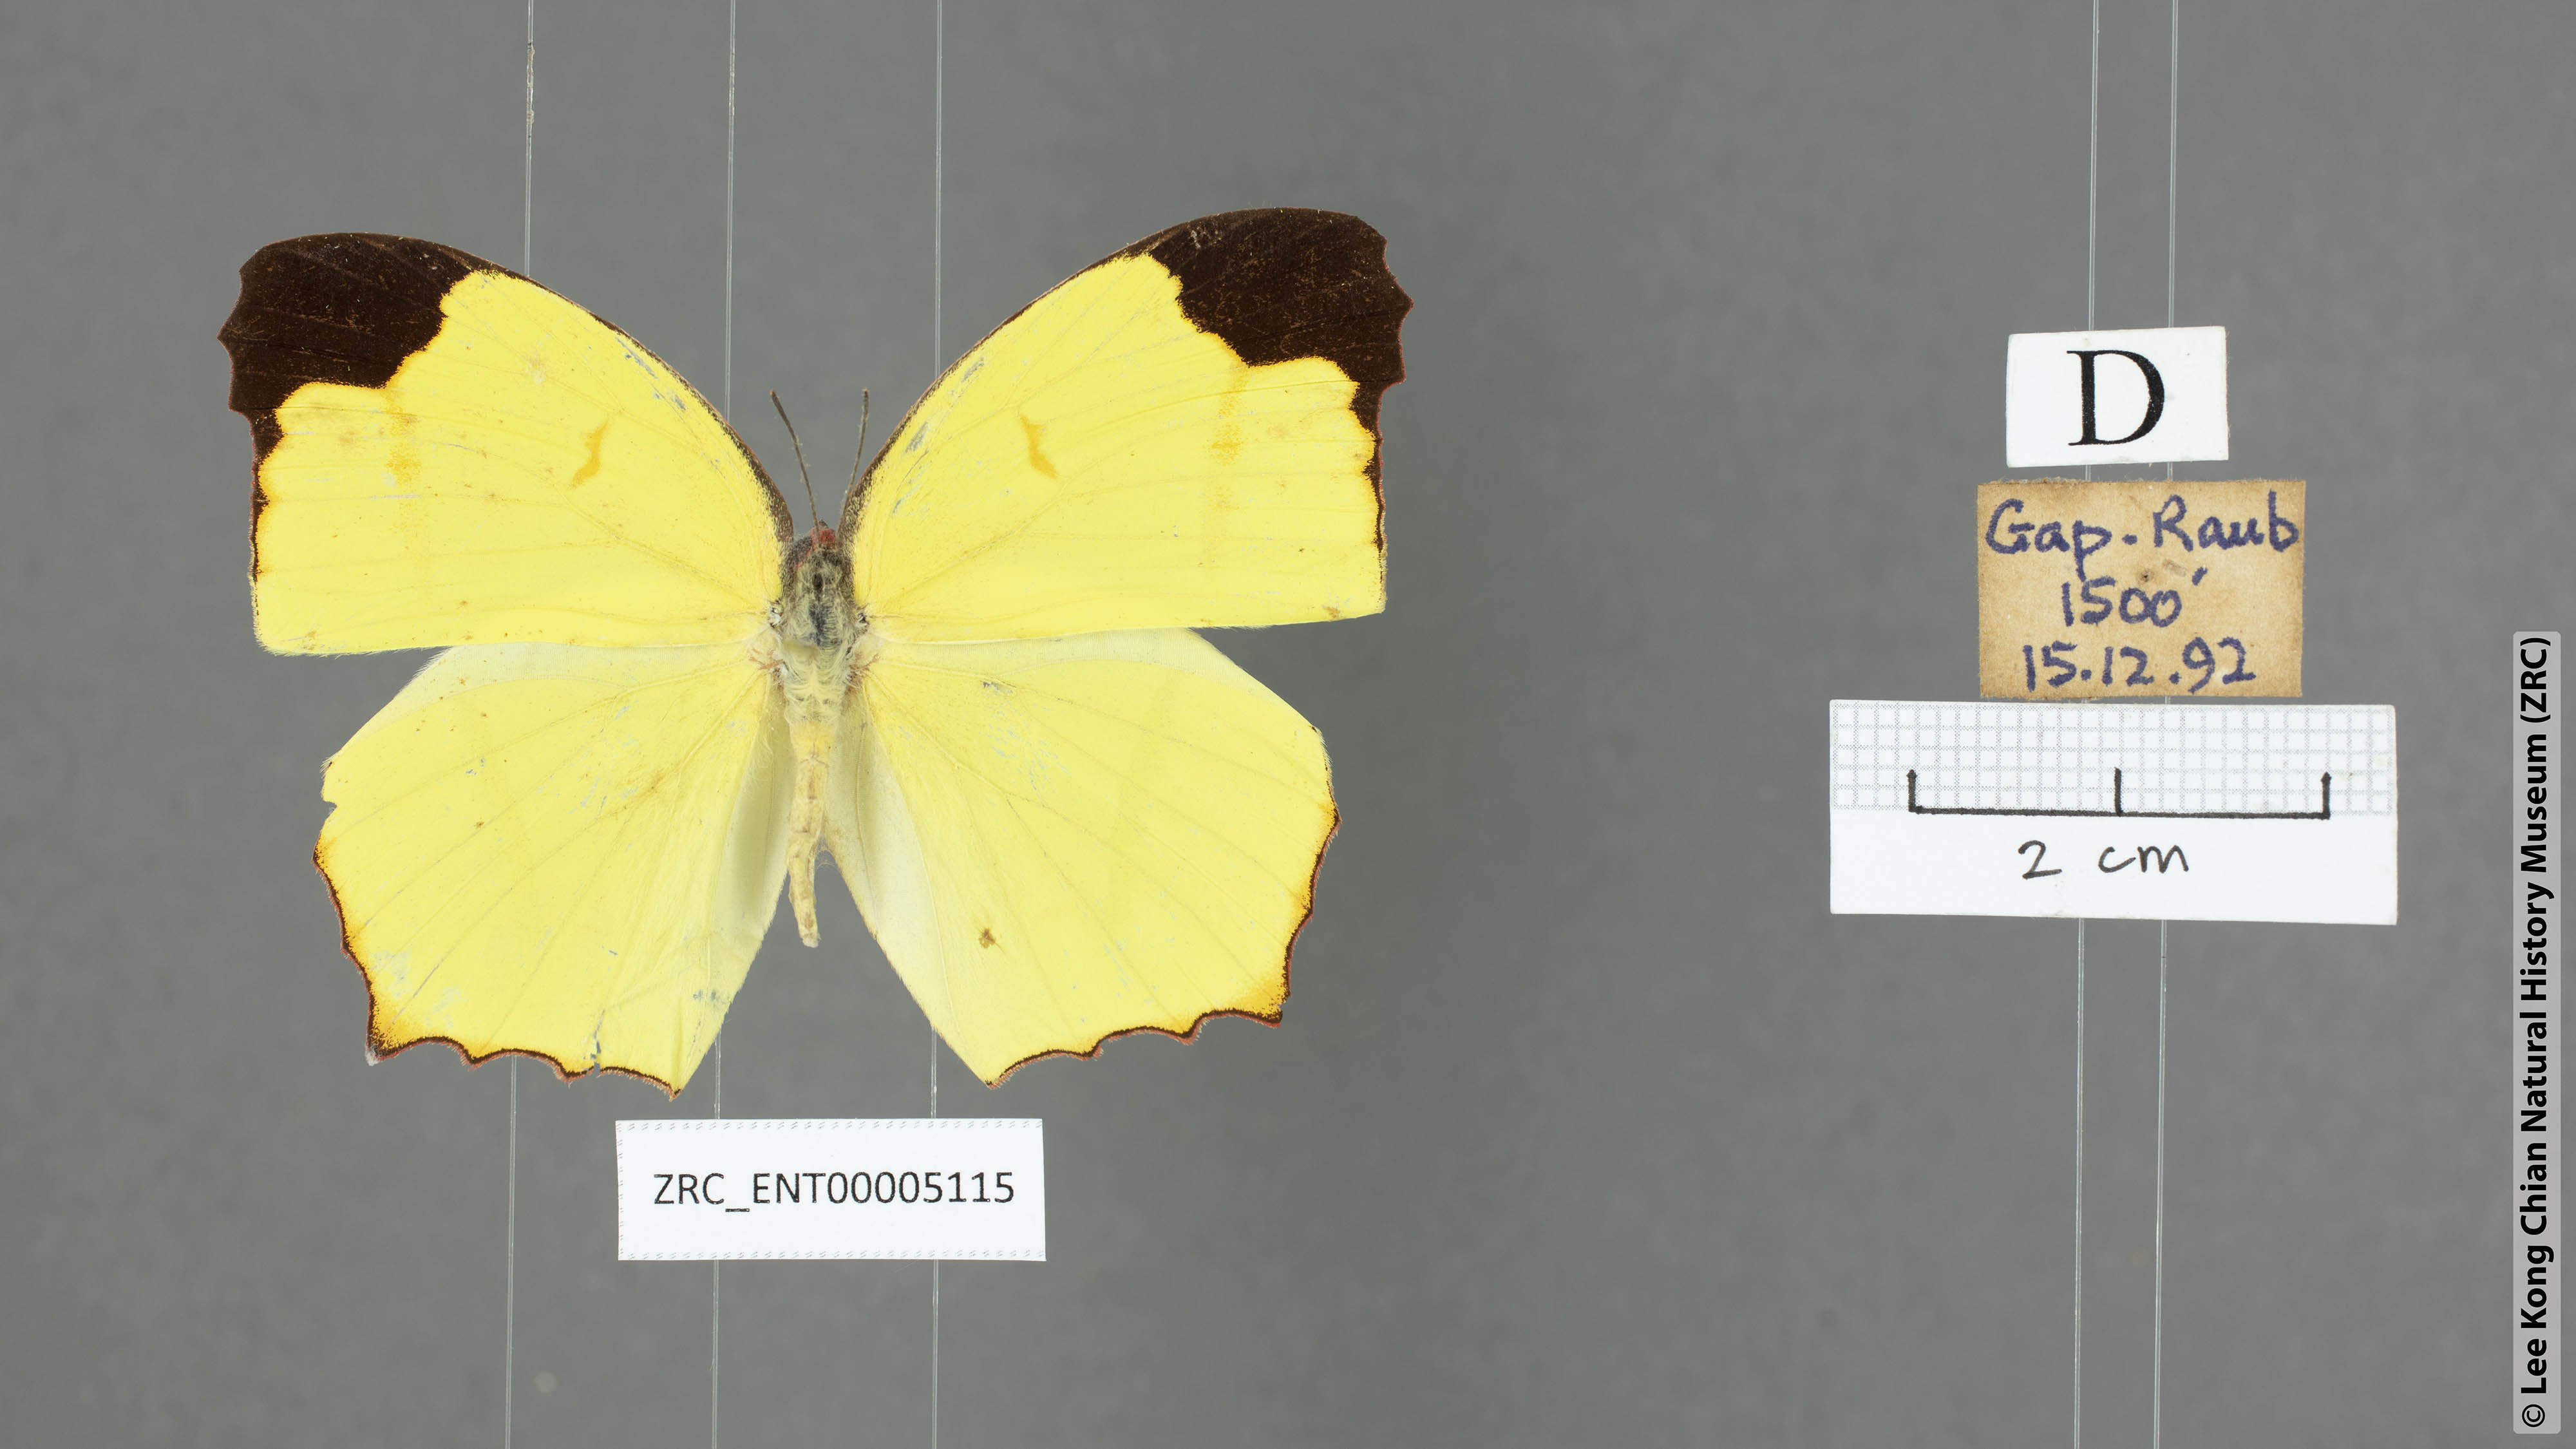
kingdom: Animalia
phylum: Arthropoda
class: Insecta
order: Lepidoptera
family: Pieridae
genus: Dercas
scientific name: Dercas verhuelli
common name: Tailed sulphur
